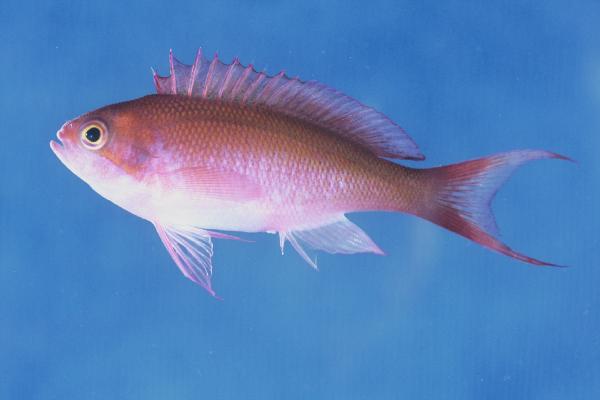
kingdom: Animalia
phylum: Chordata
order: Perciformes
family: Serranidae
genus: Pseudanthias
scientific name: Pseudanthias cooperi
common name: Red basslet
